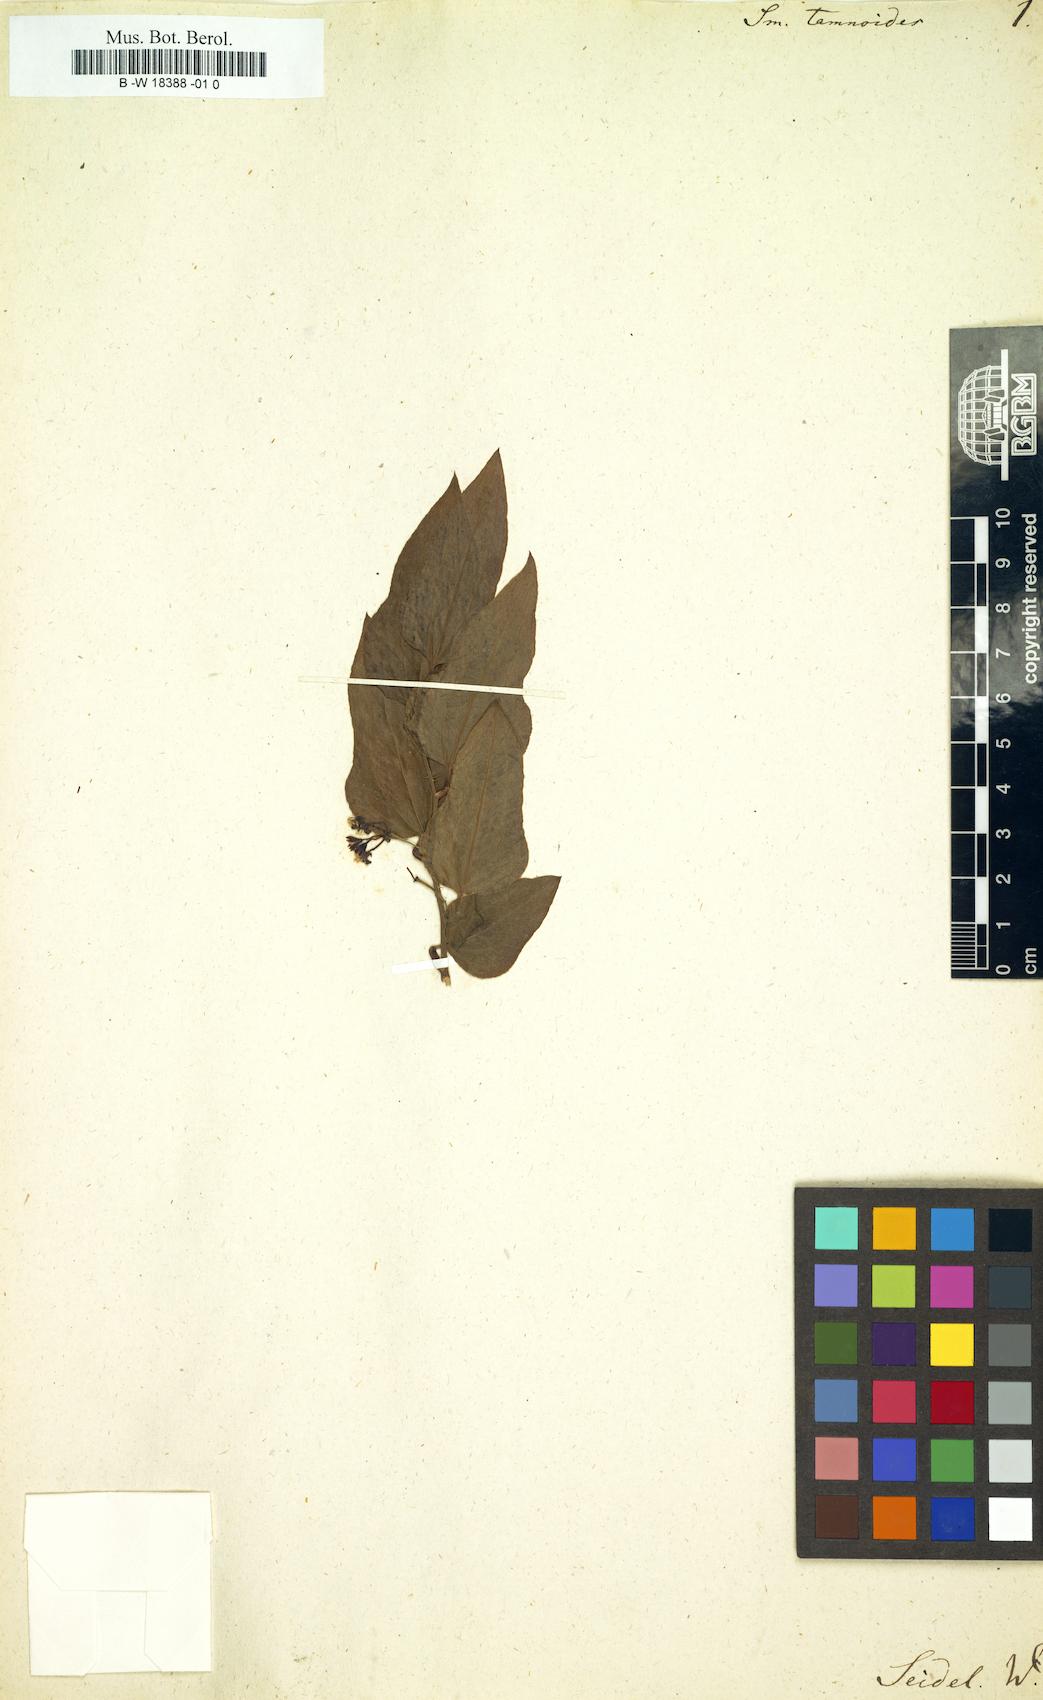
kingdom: Plantae
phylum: Tracheophyta
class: Liliopsida
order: Liliales
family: Smilacaceae
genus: Smilax
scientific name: Smilax tamnoides
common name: Hellfetter
